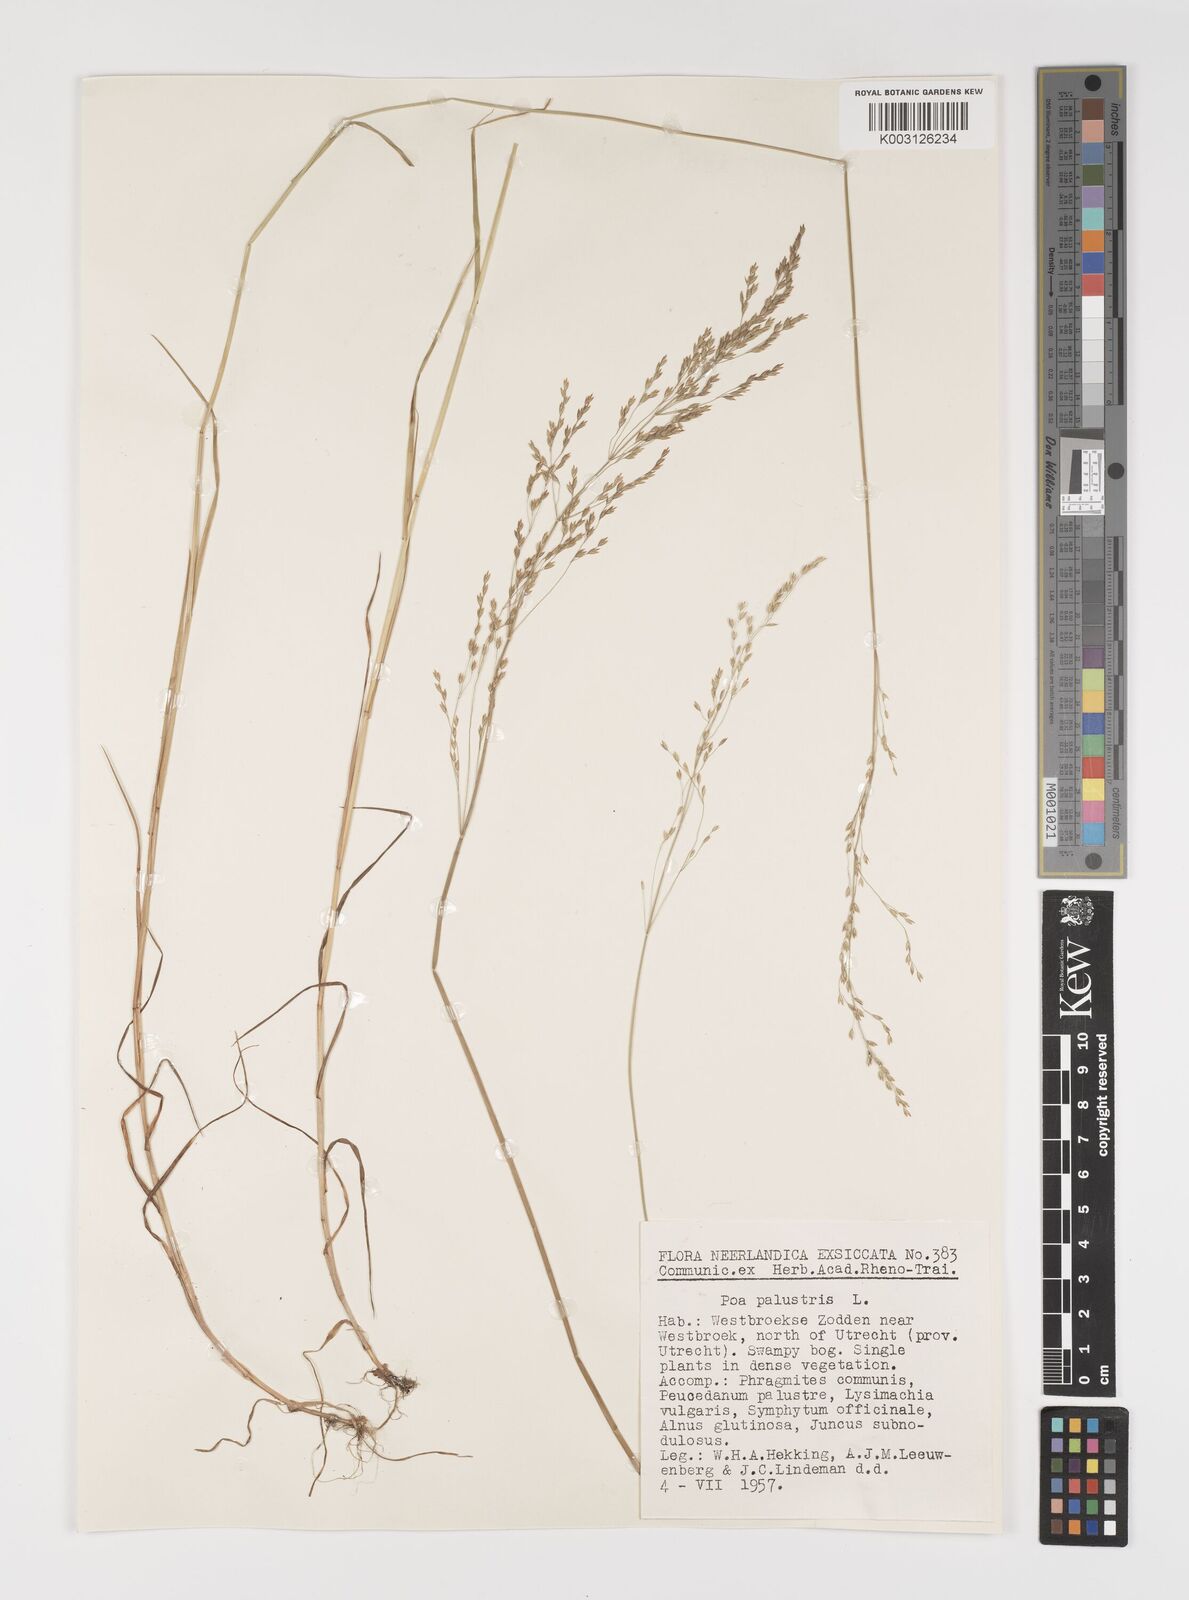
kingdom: Plantae
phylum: Tracheophyta
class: Liliopsida
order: Poales
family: Poaceae
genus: Poa
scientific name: Poa palustris
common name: Swamp meadow-grass
